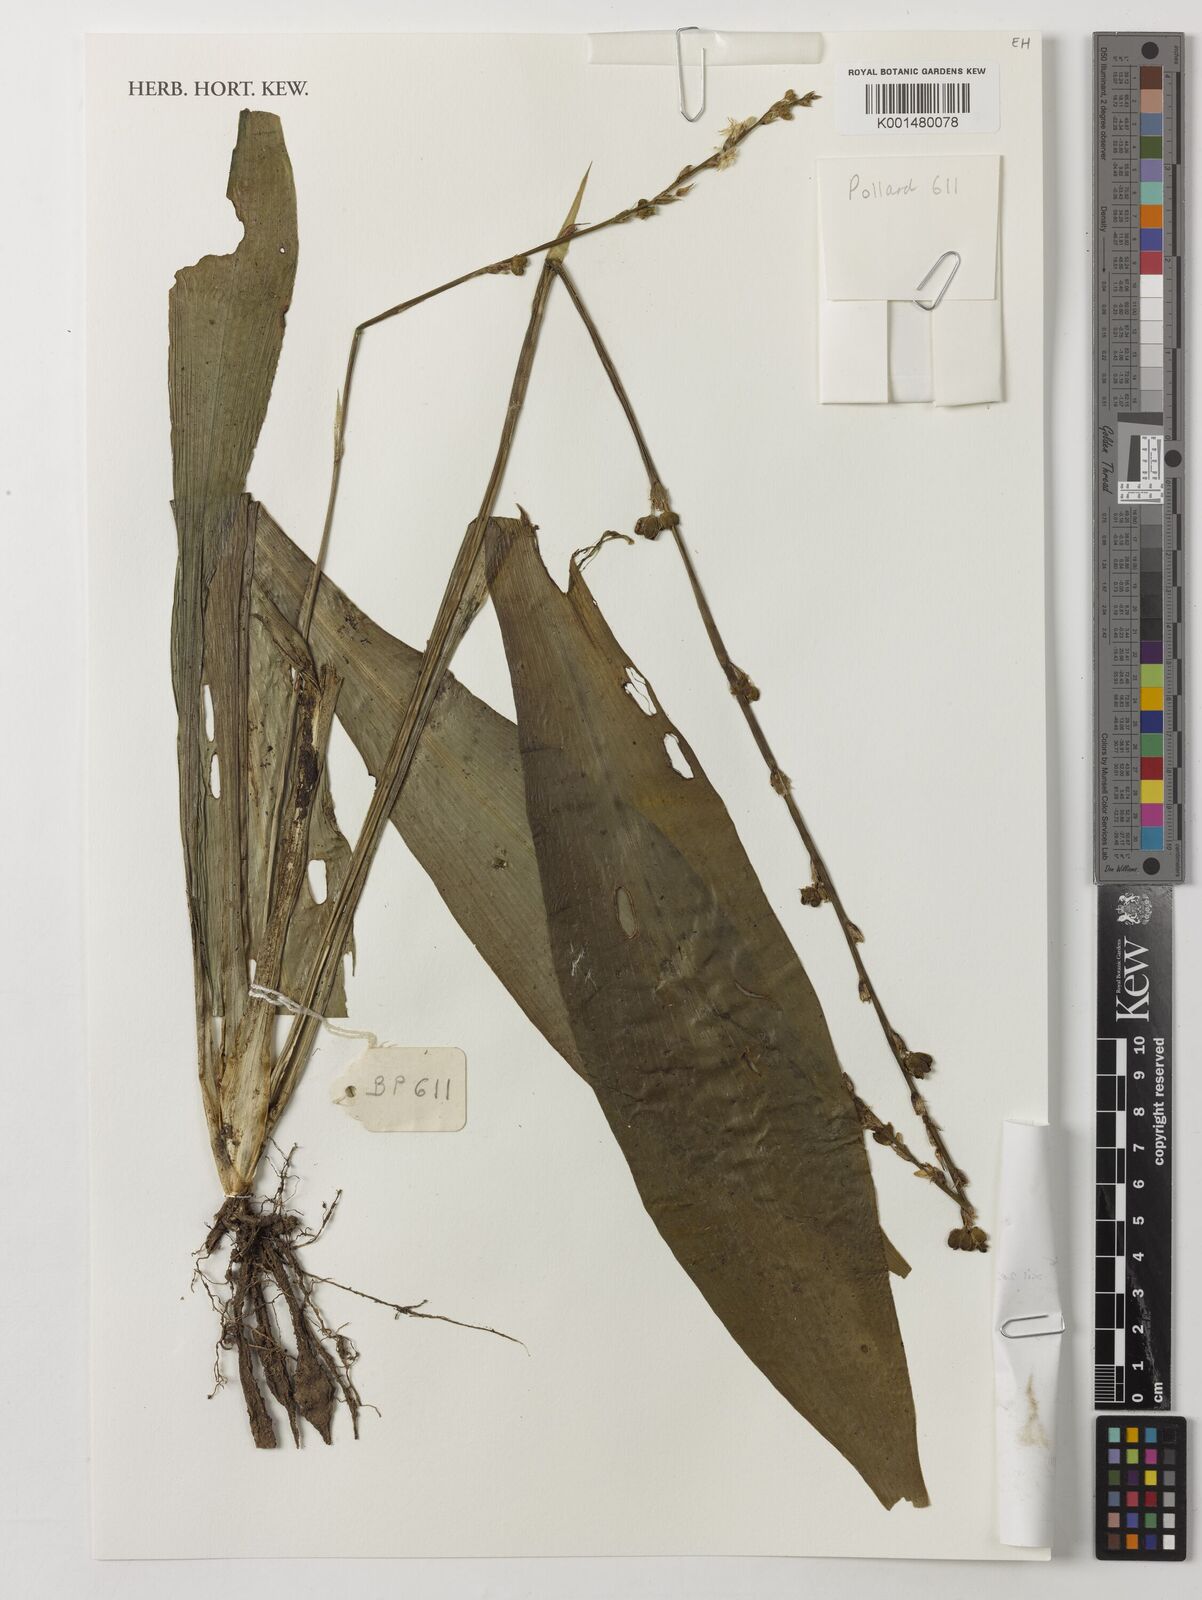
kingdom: Plantae
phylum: Tracheophyta
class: Liliopsida
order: Asparagales
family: Asparagaceae
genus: Chlorophytum
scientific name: Chlorophytum sparsiflorum
